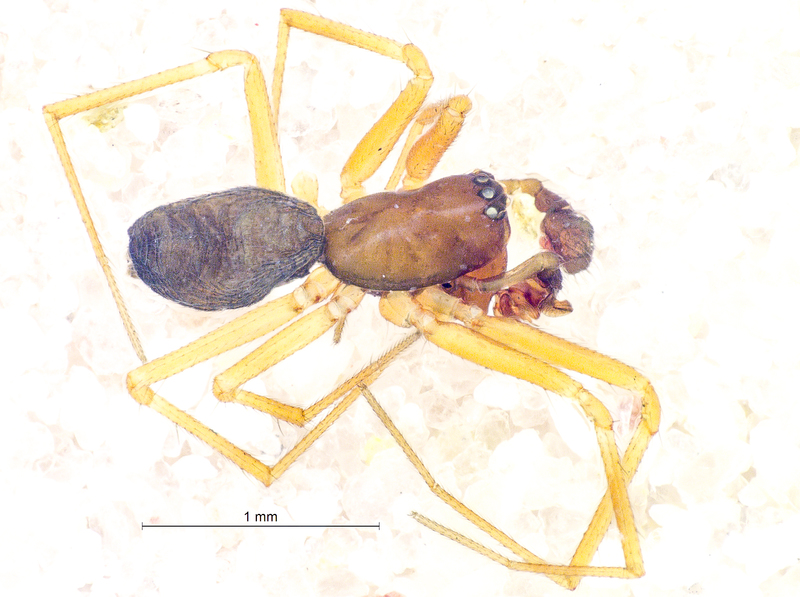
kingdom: Animalia
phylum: Arthropoda
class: Arachnida
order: Araneae
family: Linyphiidae
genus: Agyneta
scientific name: Agyneta rurestris
